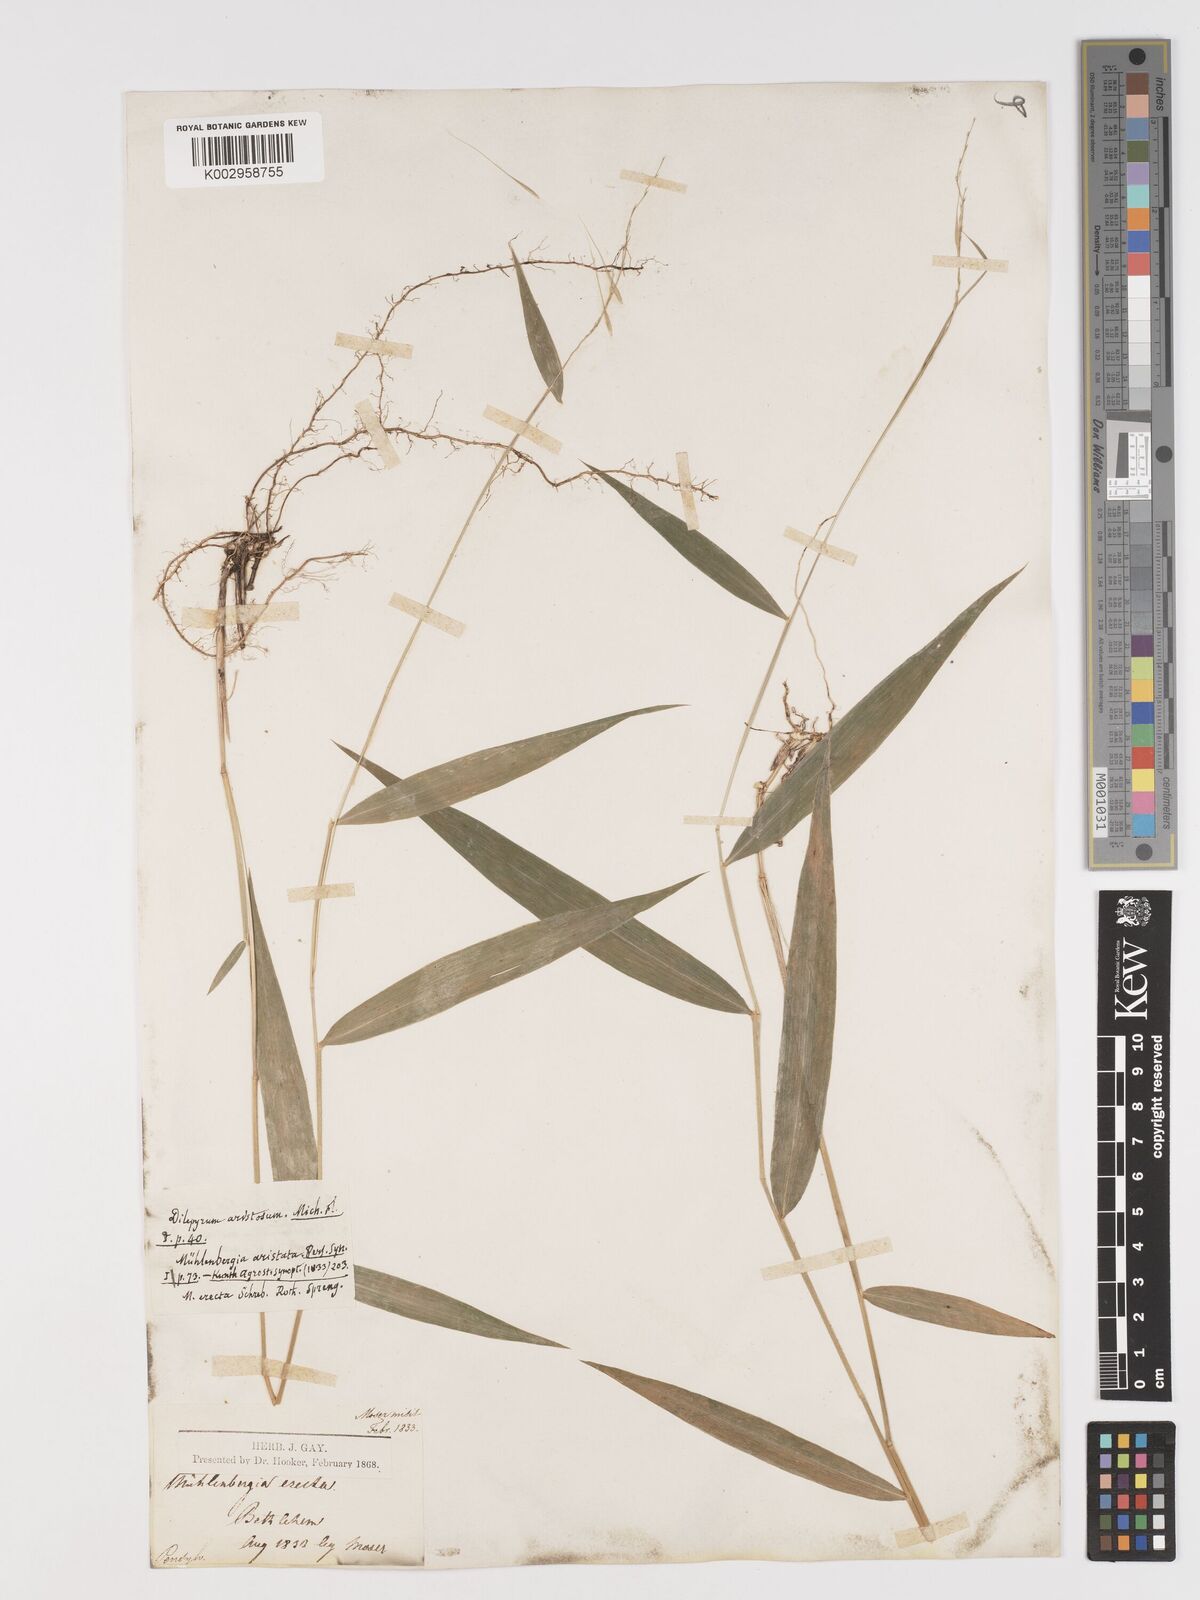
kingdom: Plantae
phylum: Tracheophyta
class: Liliopsida
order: Poales
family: Poaceae
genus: Brachyelytrum
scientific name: Brachyelytrum erectum
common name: Bearded shorthusk
